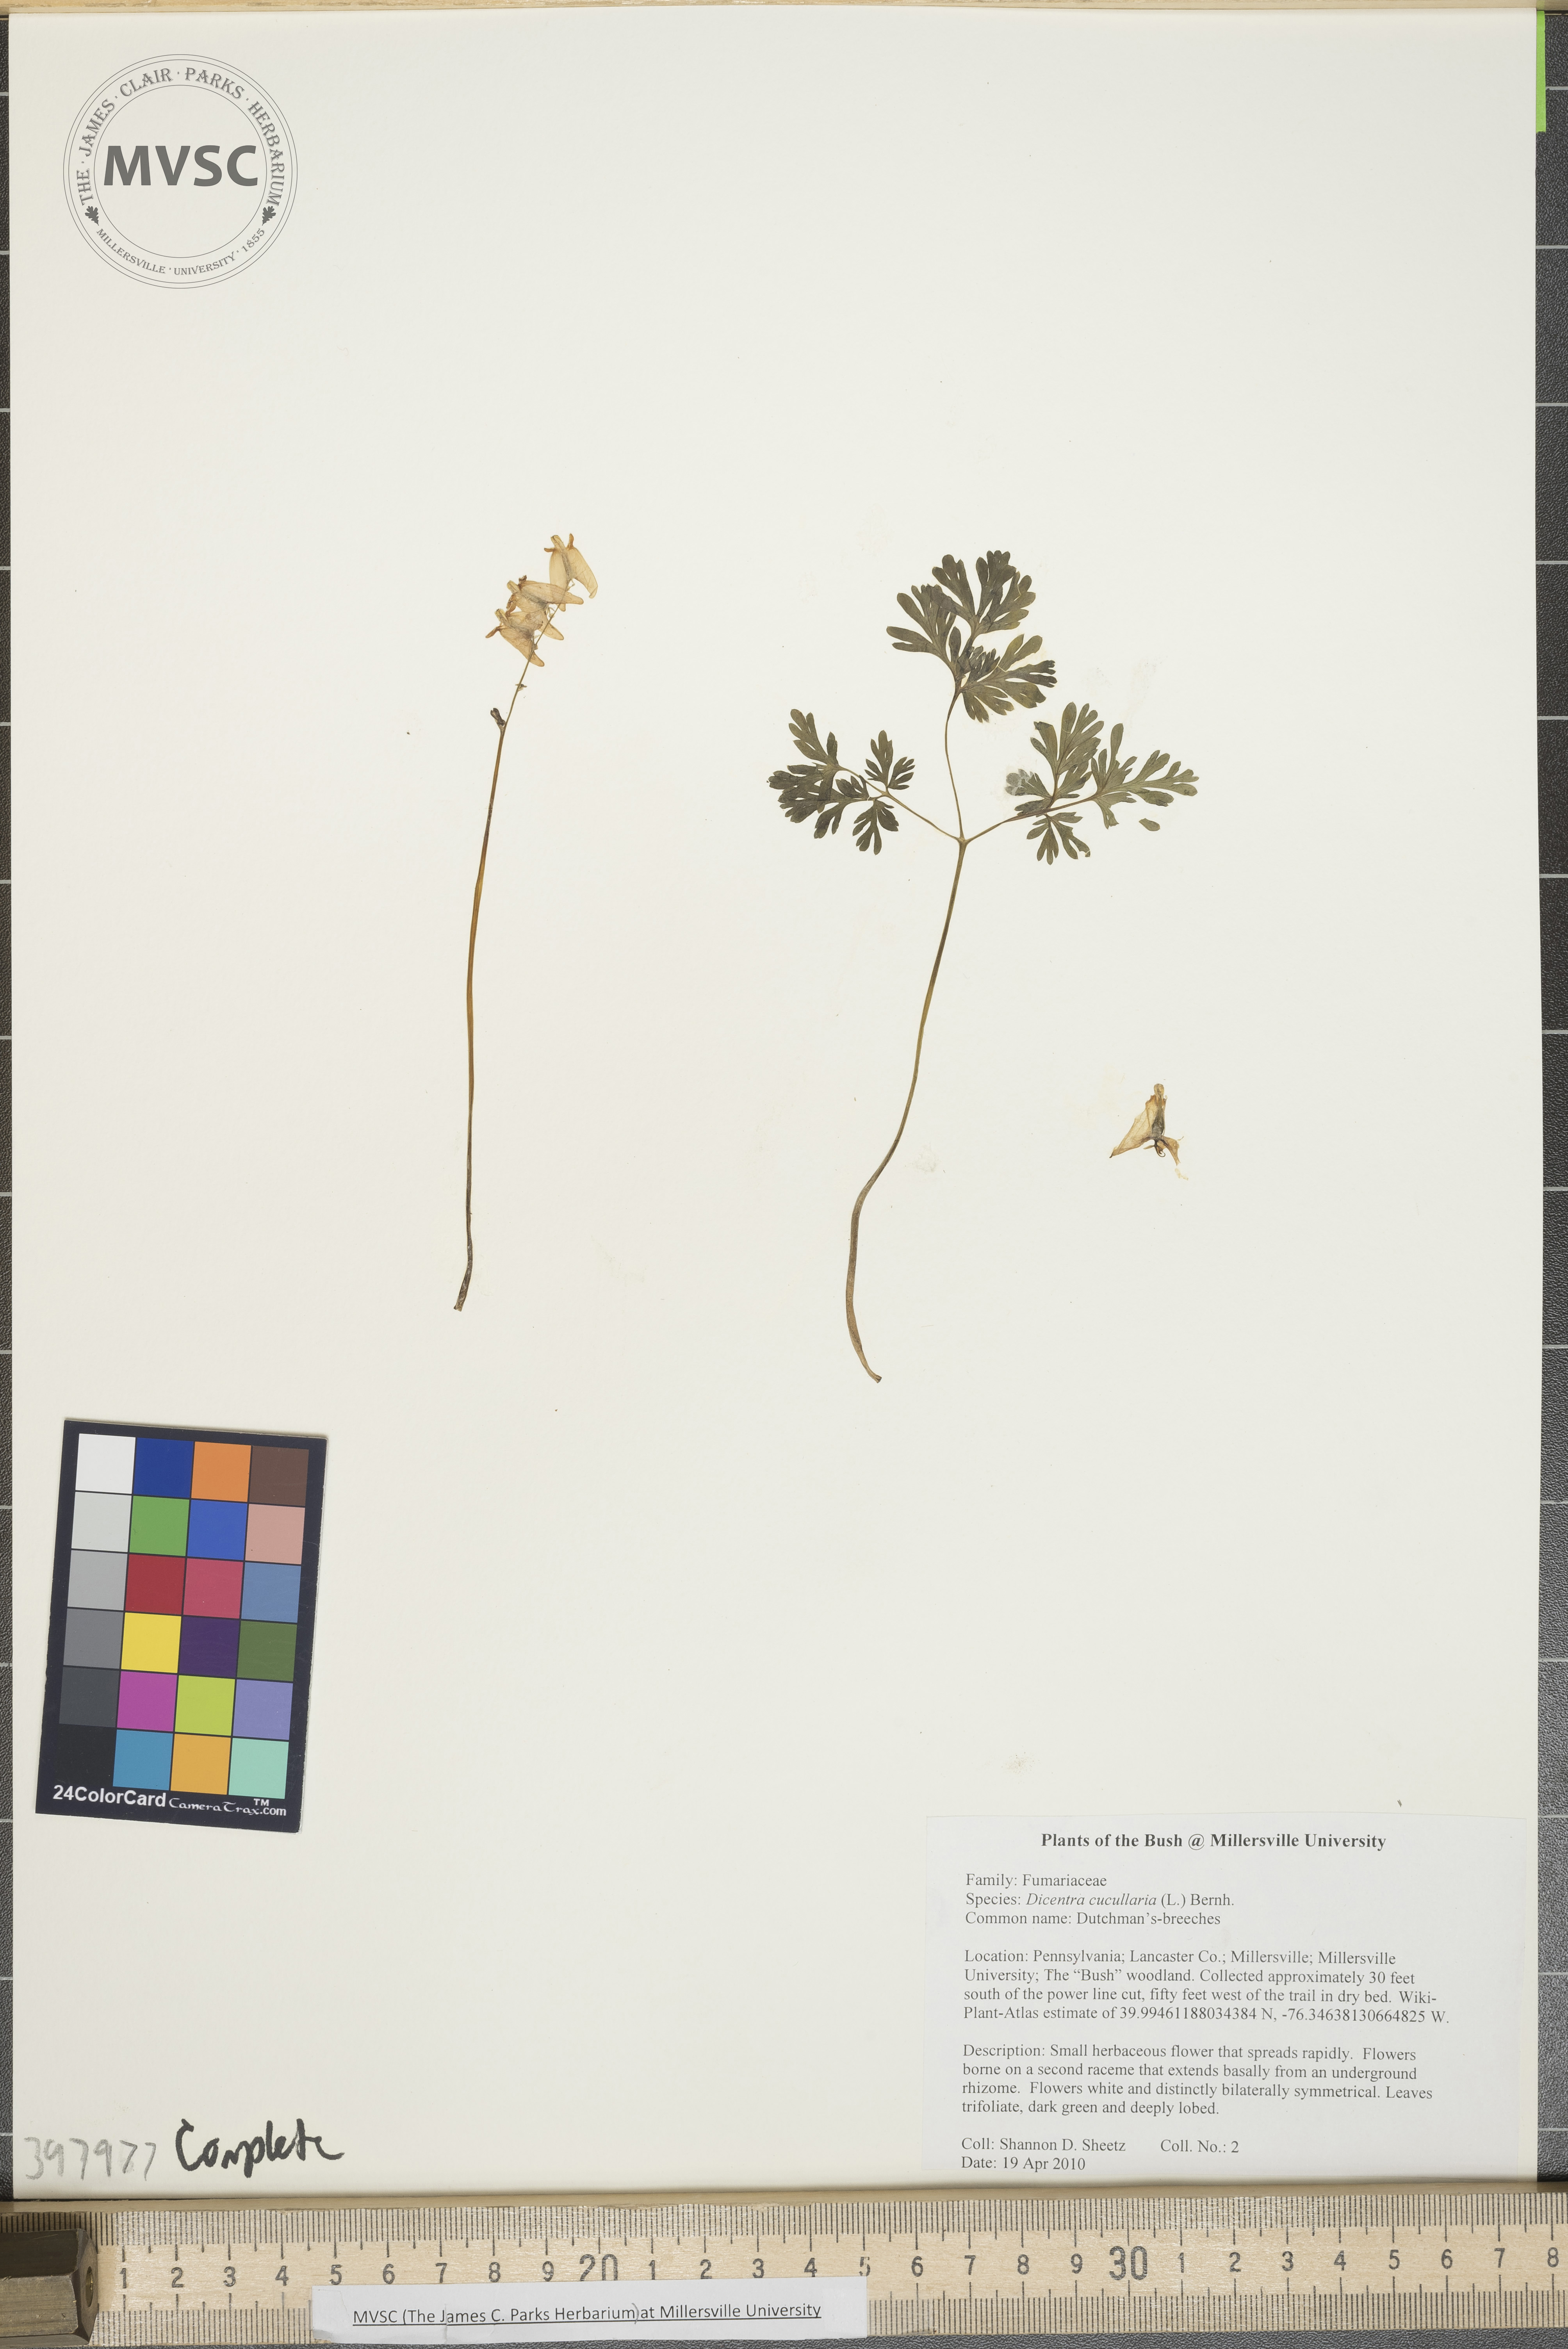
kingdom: Plantae
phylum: Tracheophyta
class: Magnoliopsida
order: Ranunculales
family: Papaveraceae
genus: Dicentra
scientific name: Dicentra cucullaria
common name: Dutchman's-breeches
